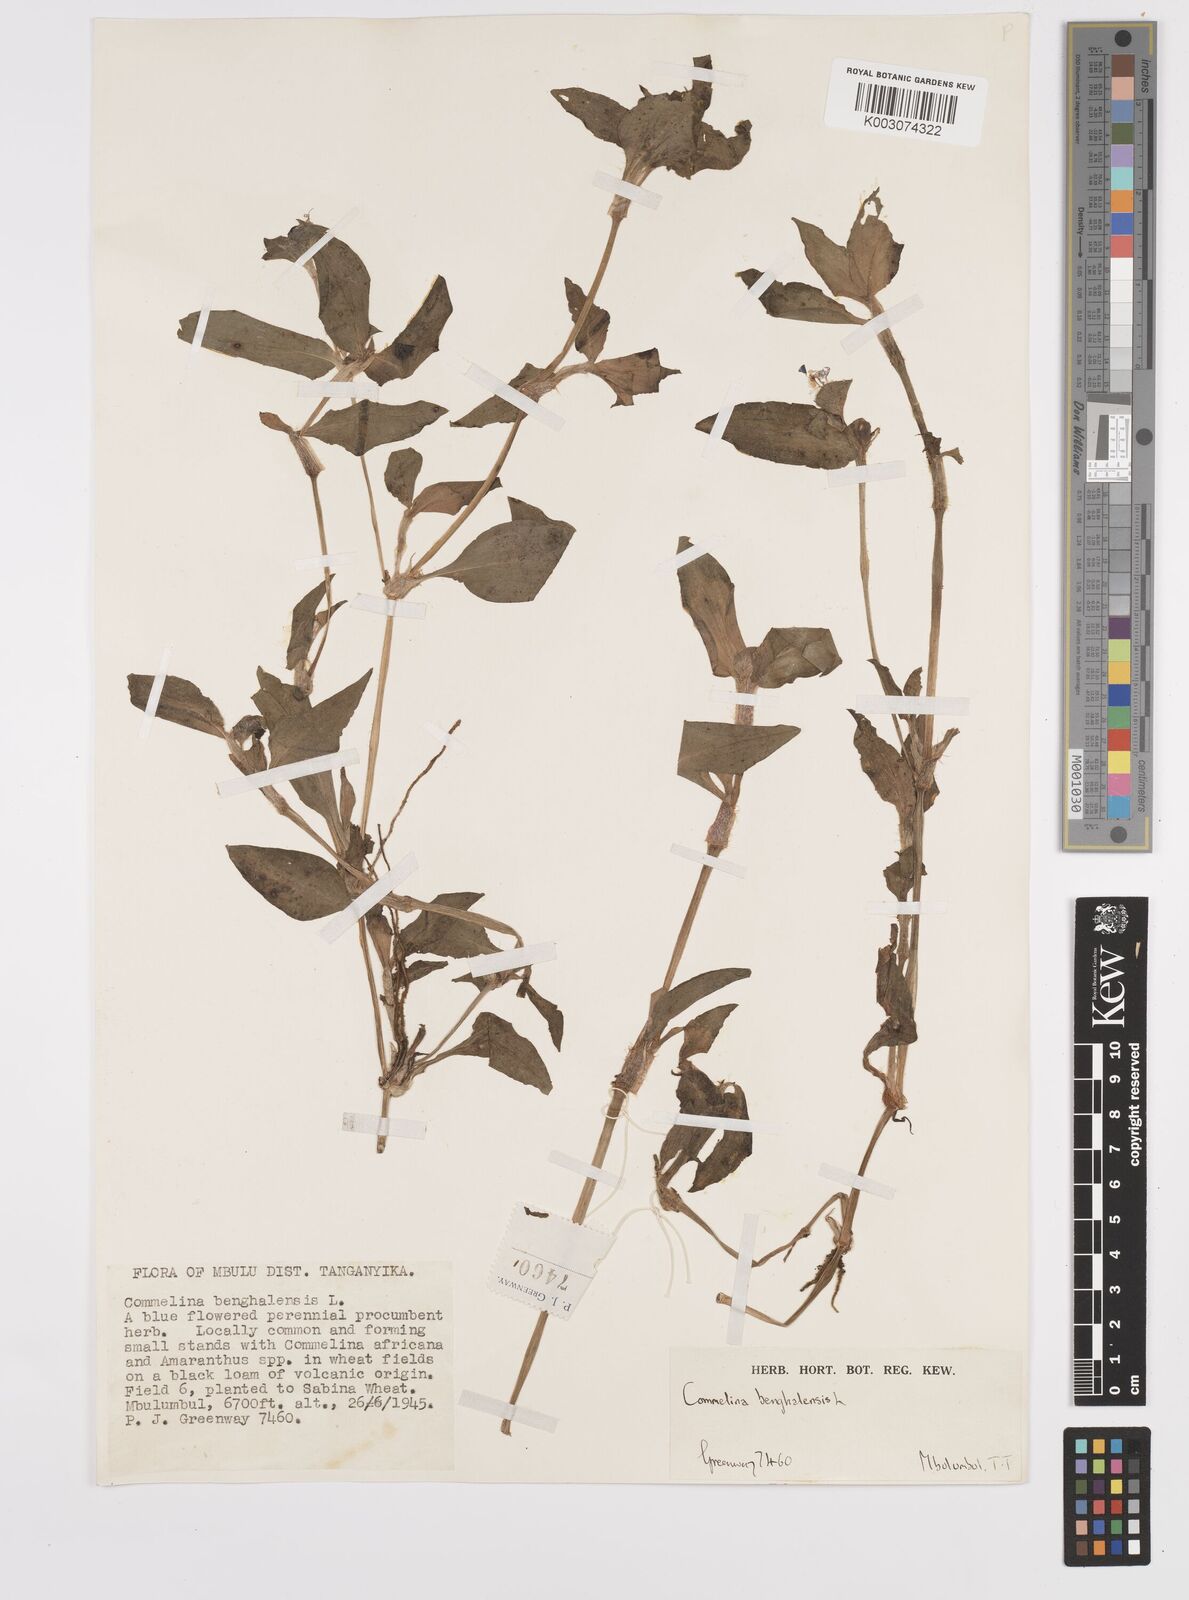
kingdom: Plantae
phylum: Tracheophyta
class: Liliopsida
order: Commelinales
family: Commelinaceae
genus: Commelina
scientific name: Commelina benghalensis
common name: Jio
